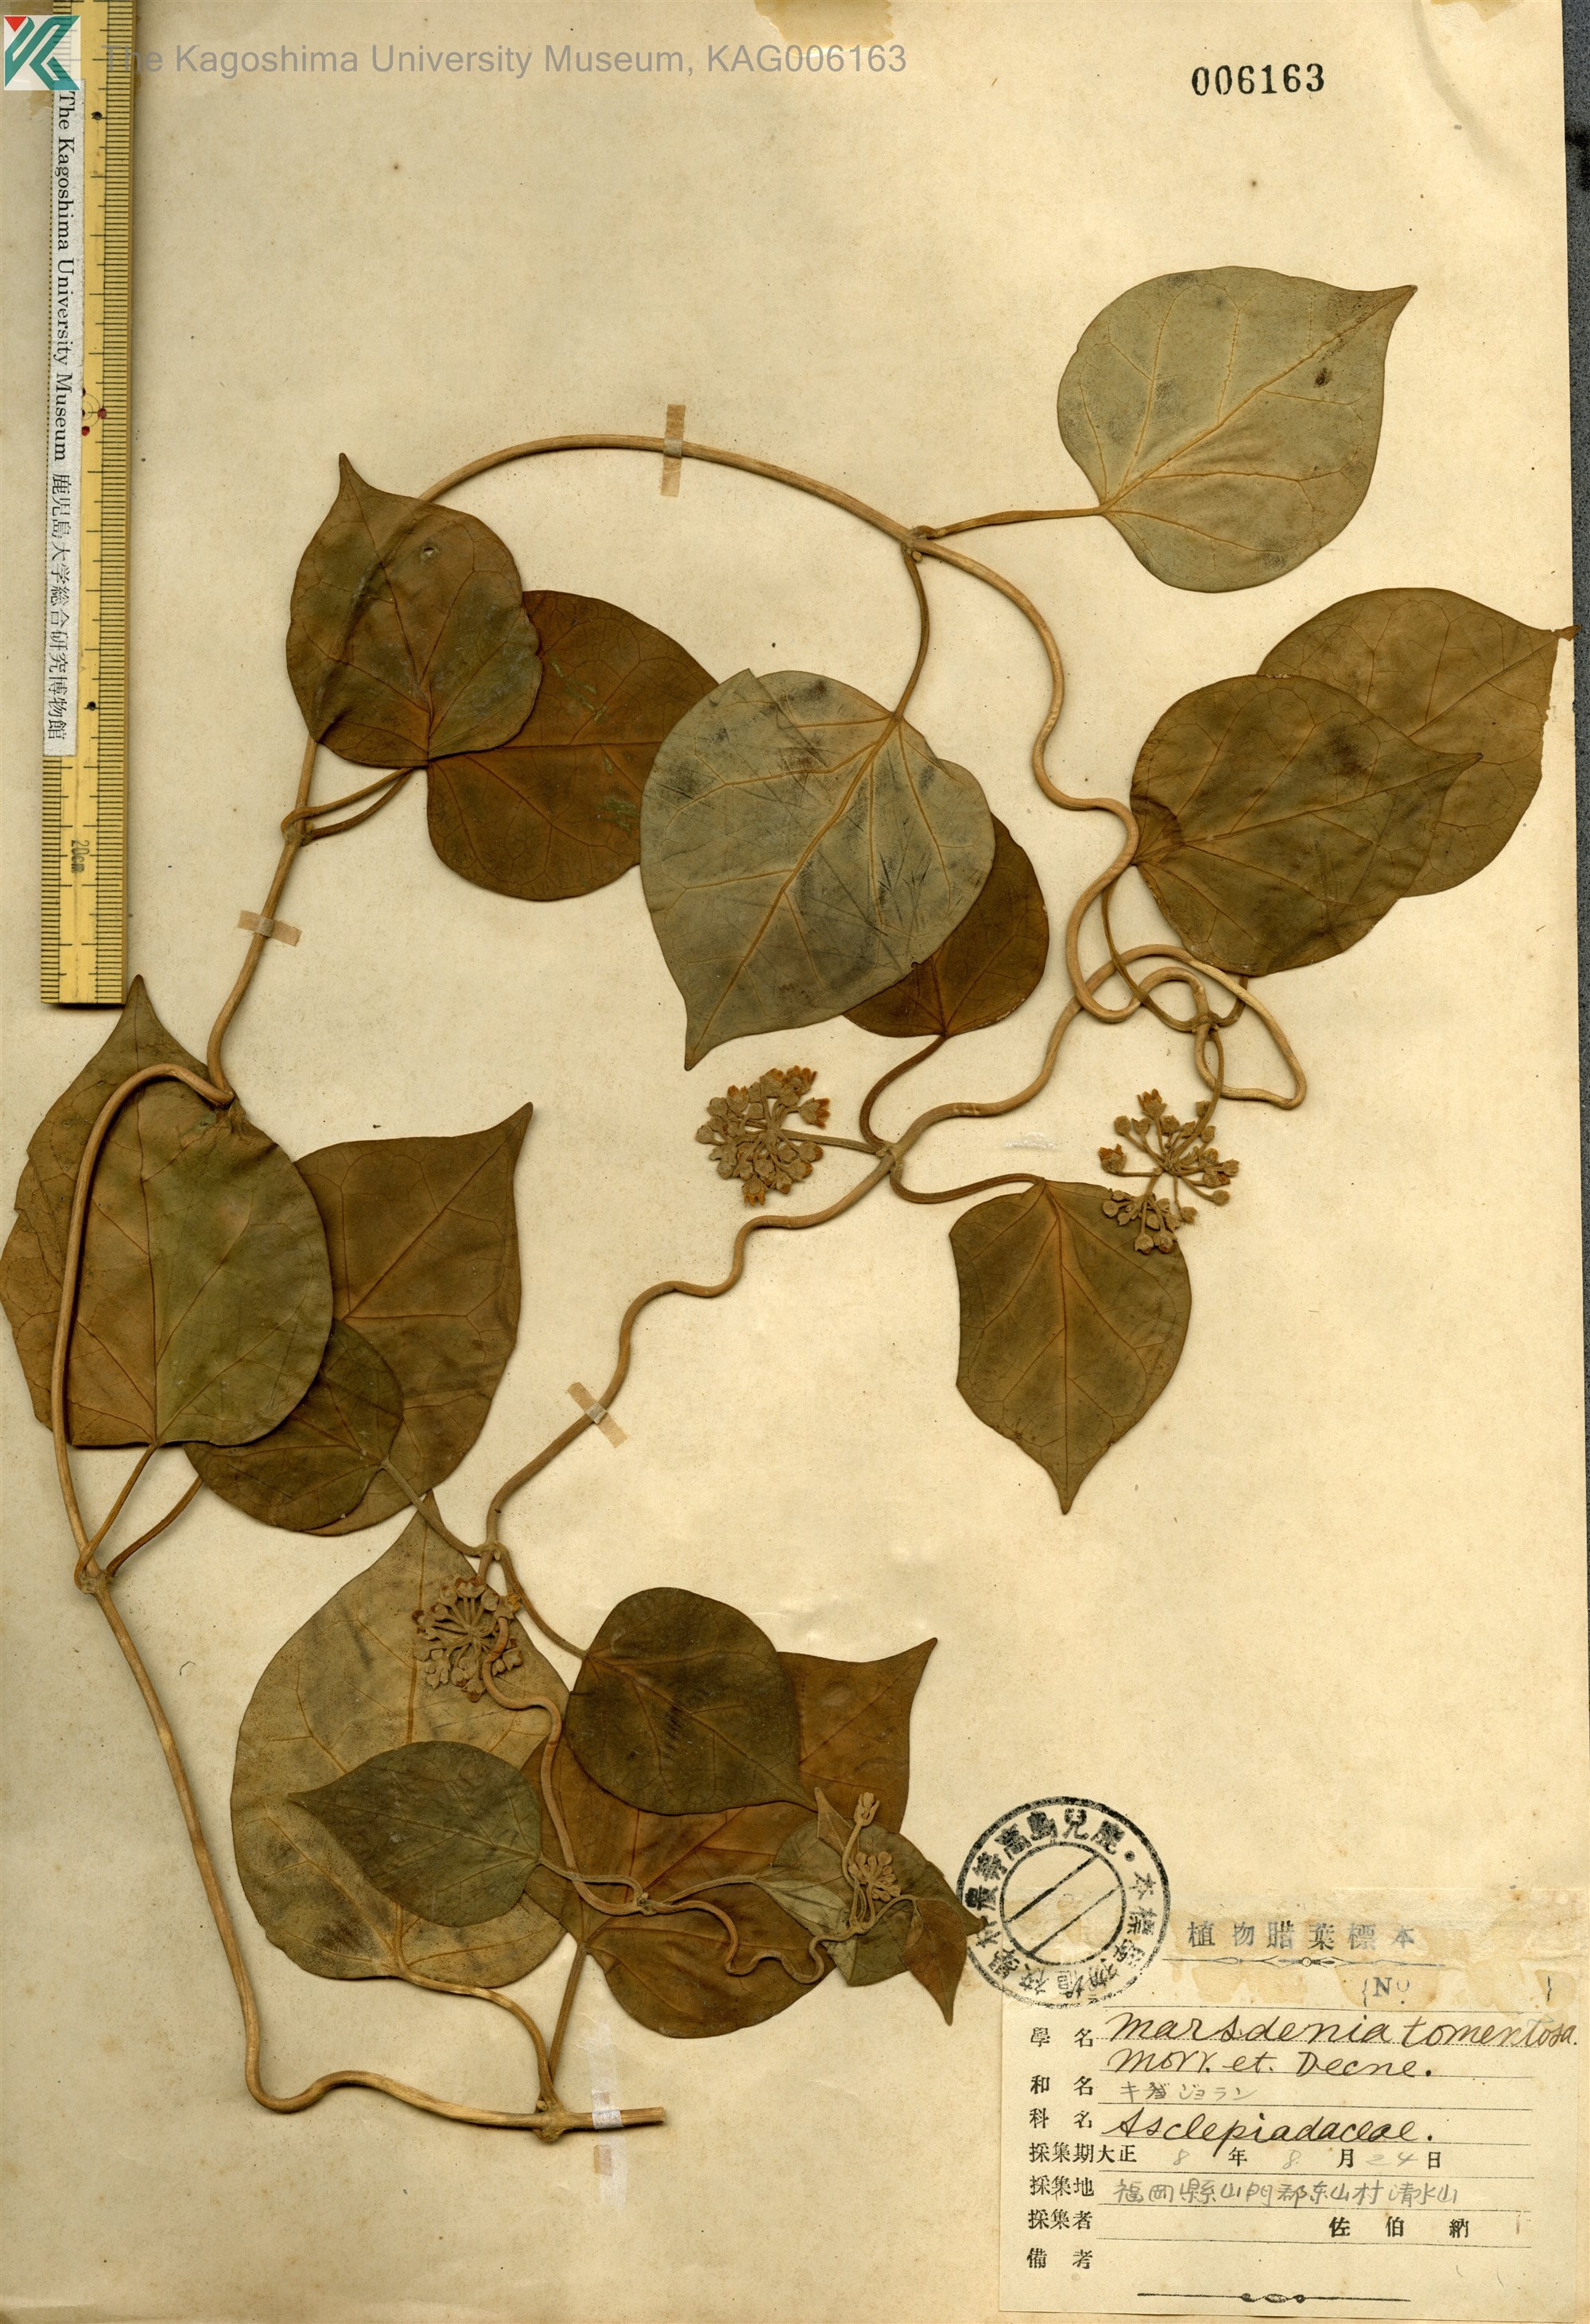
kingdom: Plantae
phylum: Tracheophyta
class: Magnoliopsida
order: Gentianales
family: Apocynaceae
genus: Sinomarsdenia
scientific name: Sinomarsdenia tomentosa
